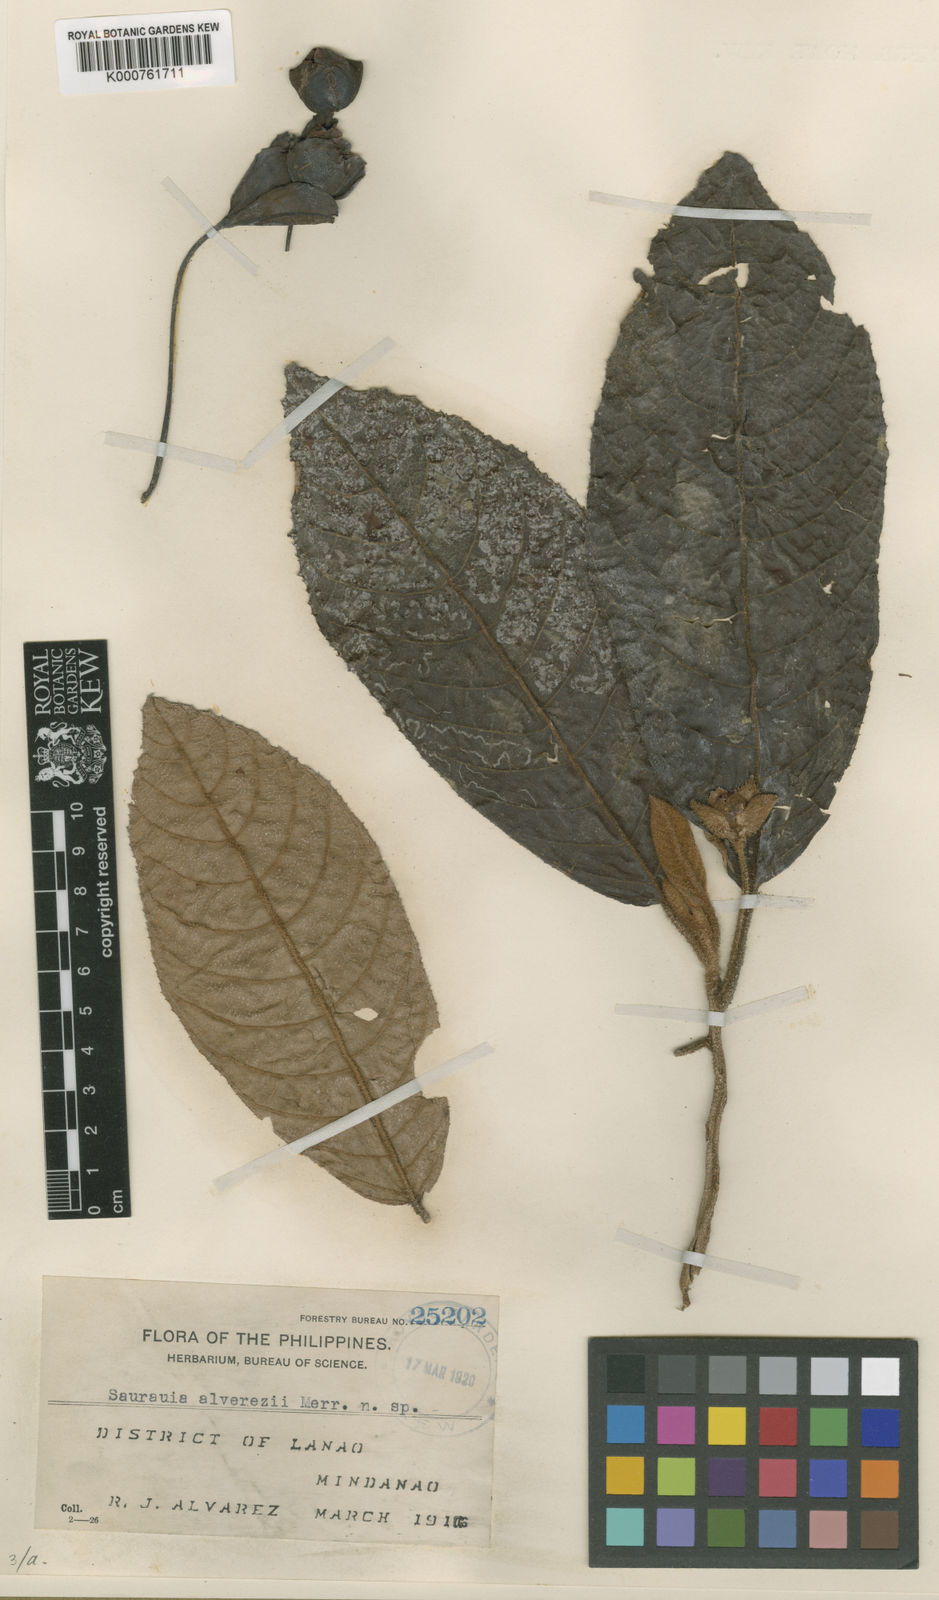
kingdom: Plantae
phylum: Tracheophyta
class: Magnoliopsida
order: Ericales
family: Actinidiaceae
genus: Saurauia
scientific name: Saurauia alvarezii
